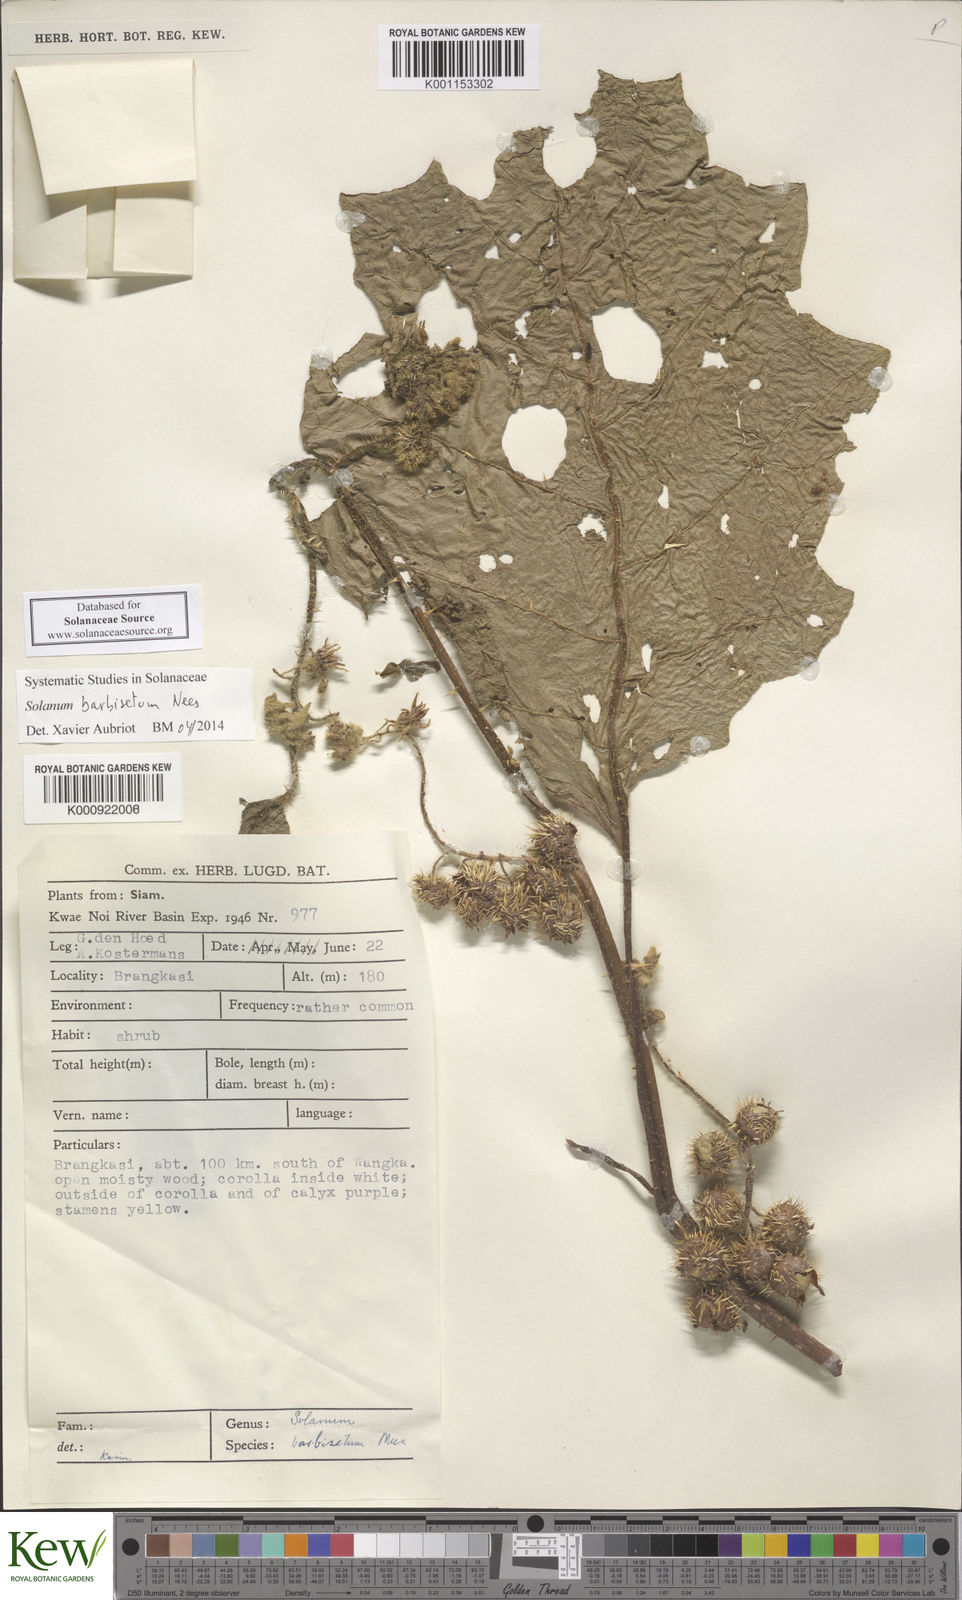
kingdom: Plantae
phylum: Tracheophyta
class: Magnoliopsida
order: Solanales
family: Solanaceae
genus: Solanum
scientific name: Solanum barbisetum
